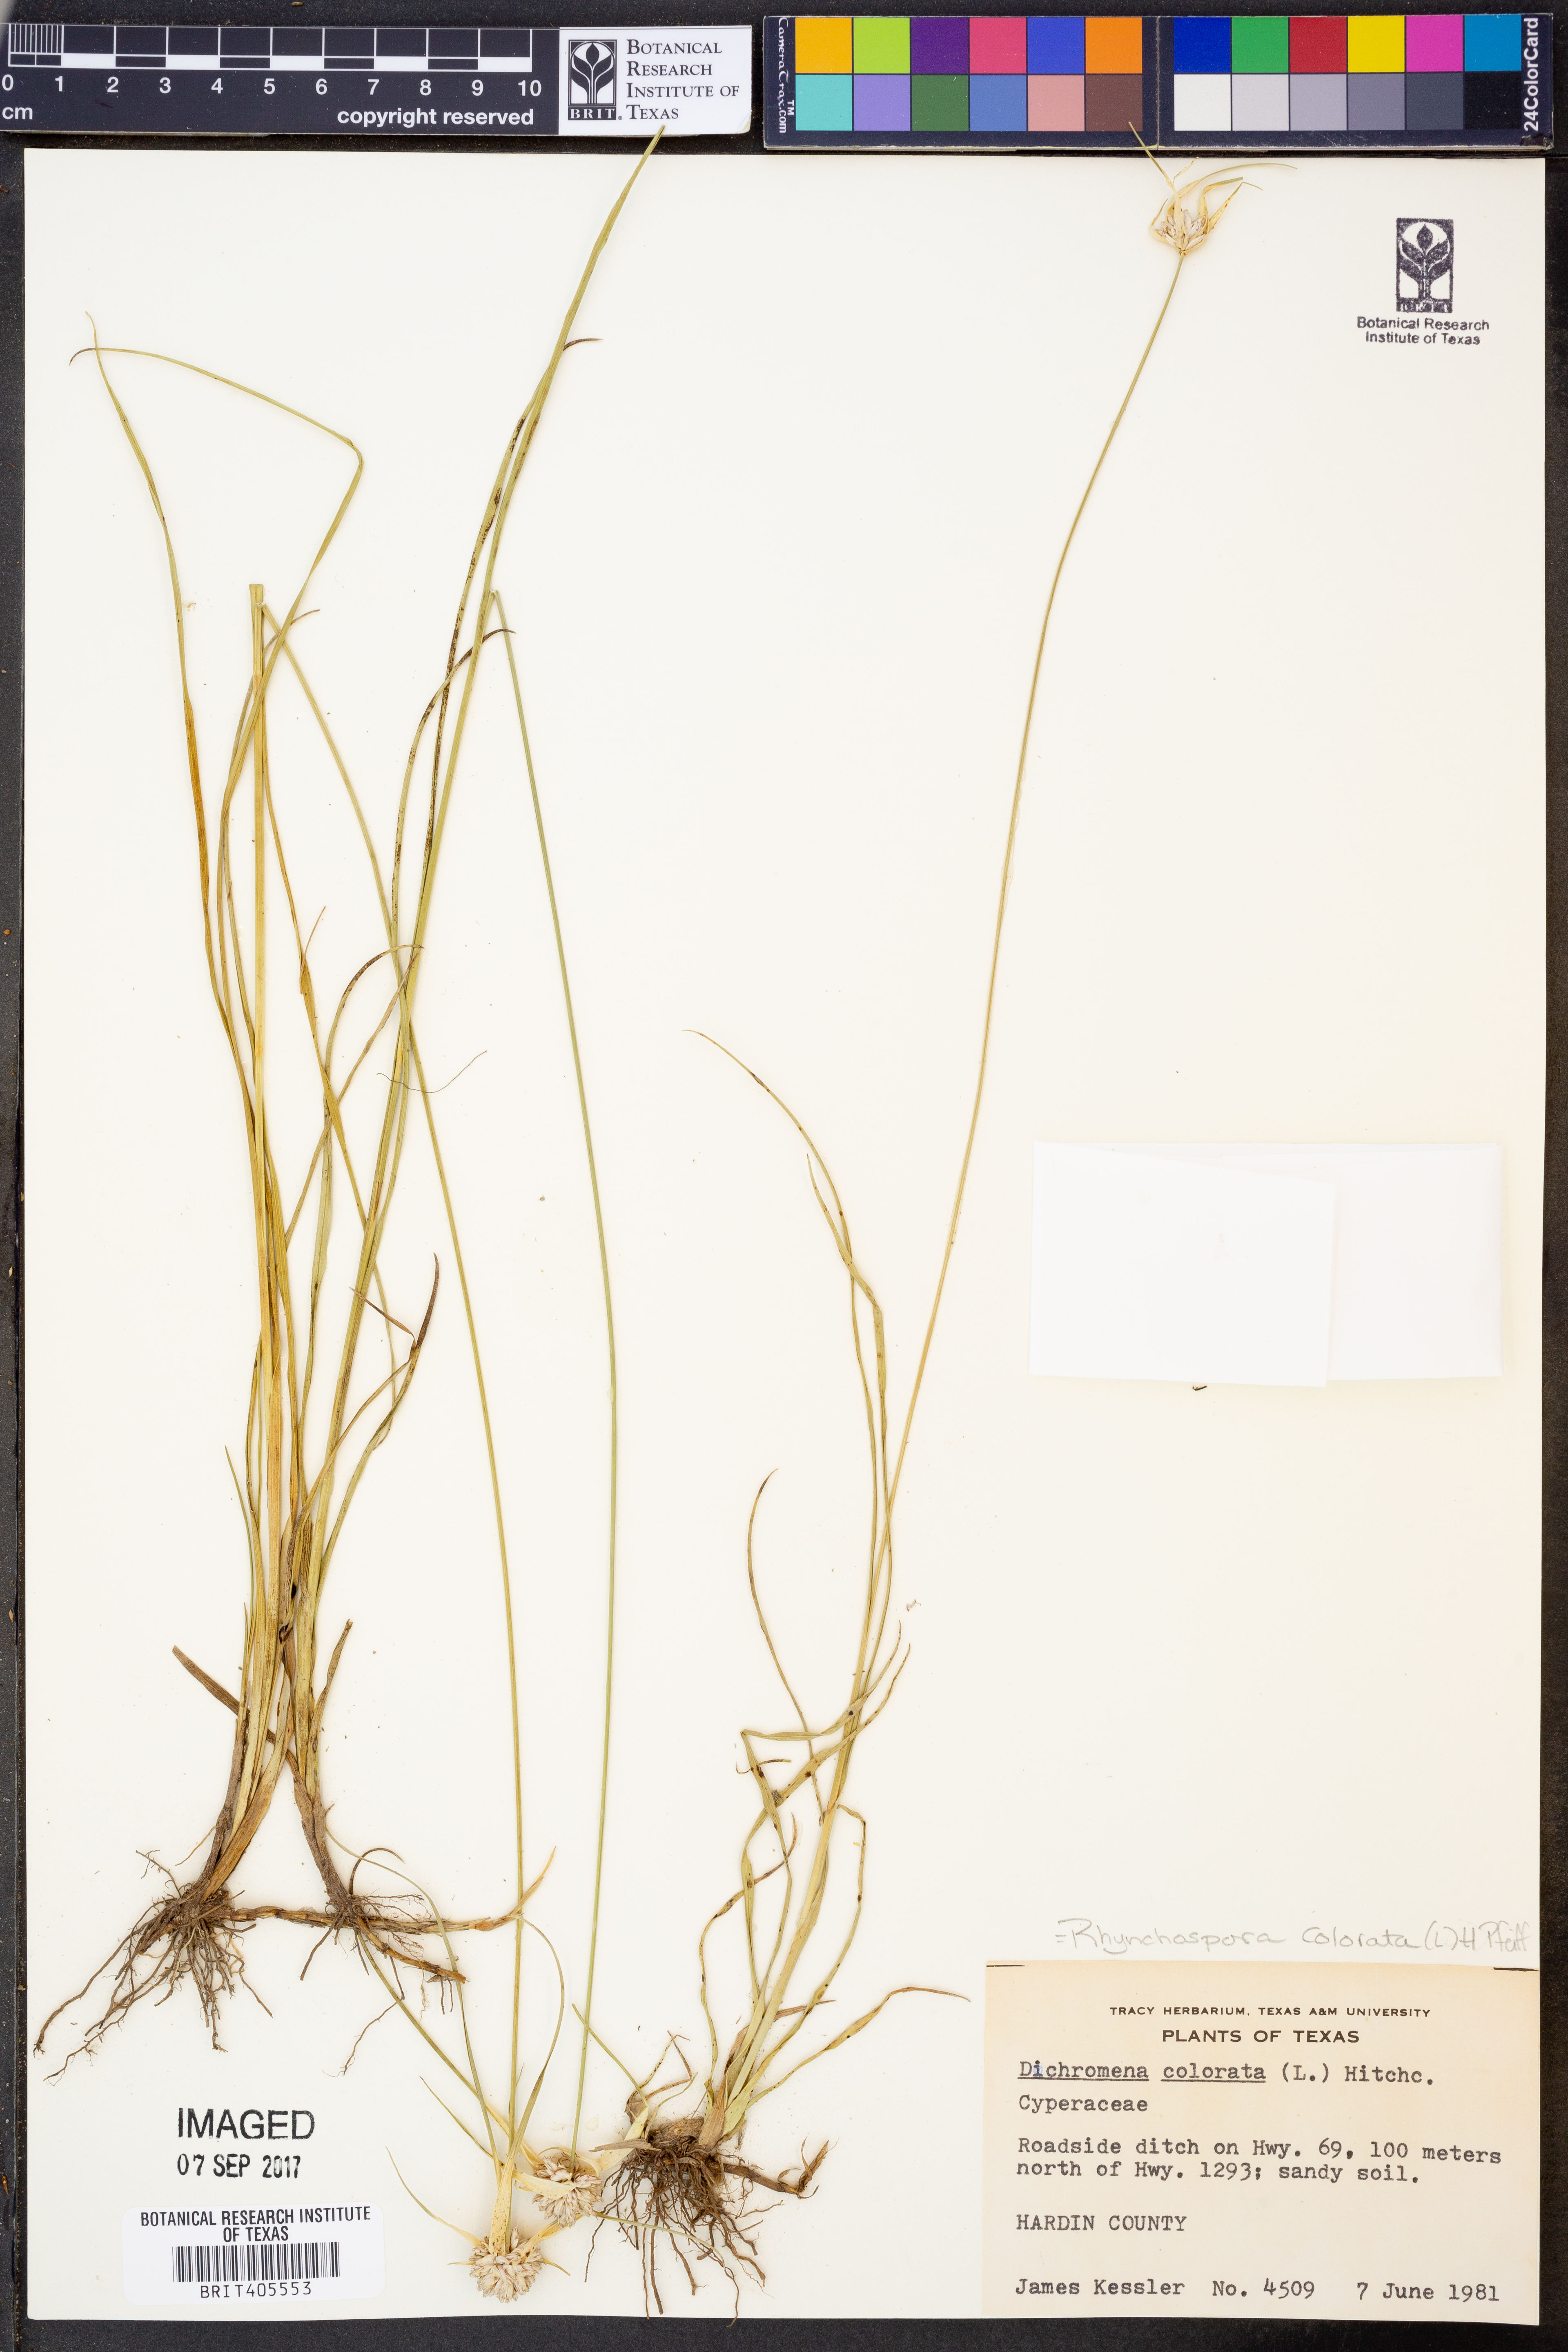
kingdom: Plantae
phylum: Tracheophyta
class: Liliopsida
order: Poales
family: Cyperaceae
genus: Rhynchospora
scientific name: Rhynchospora colorata
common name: Star sedge
